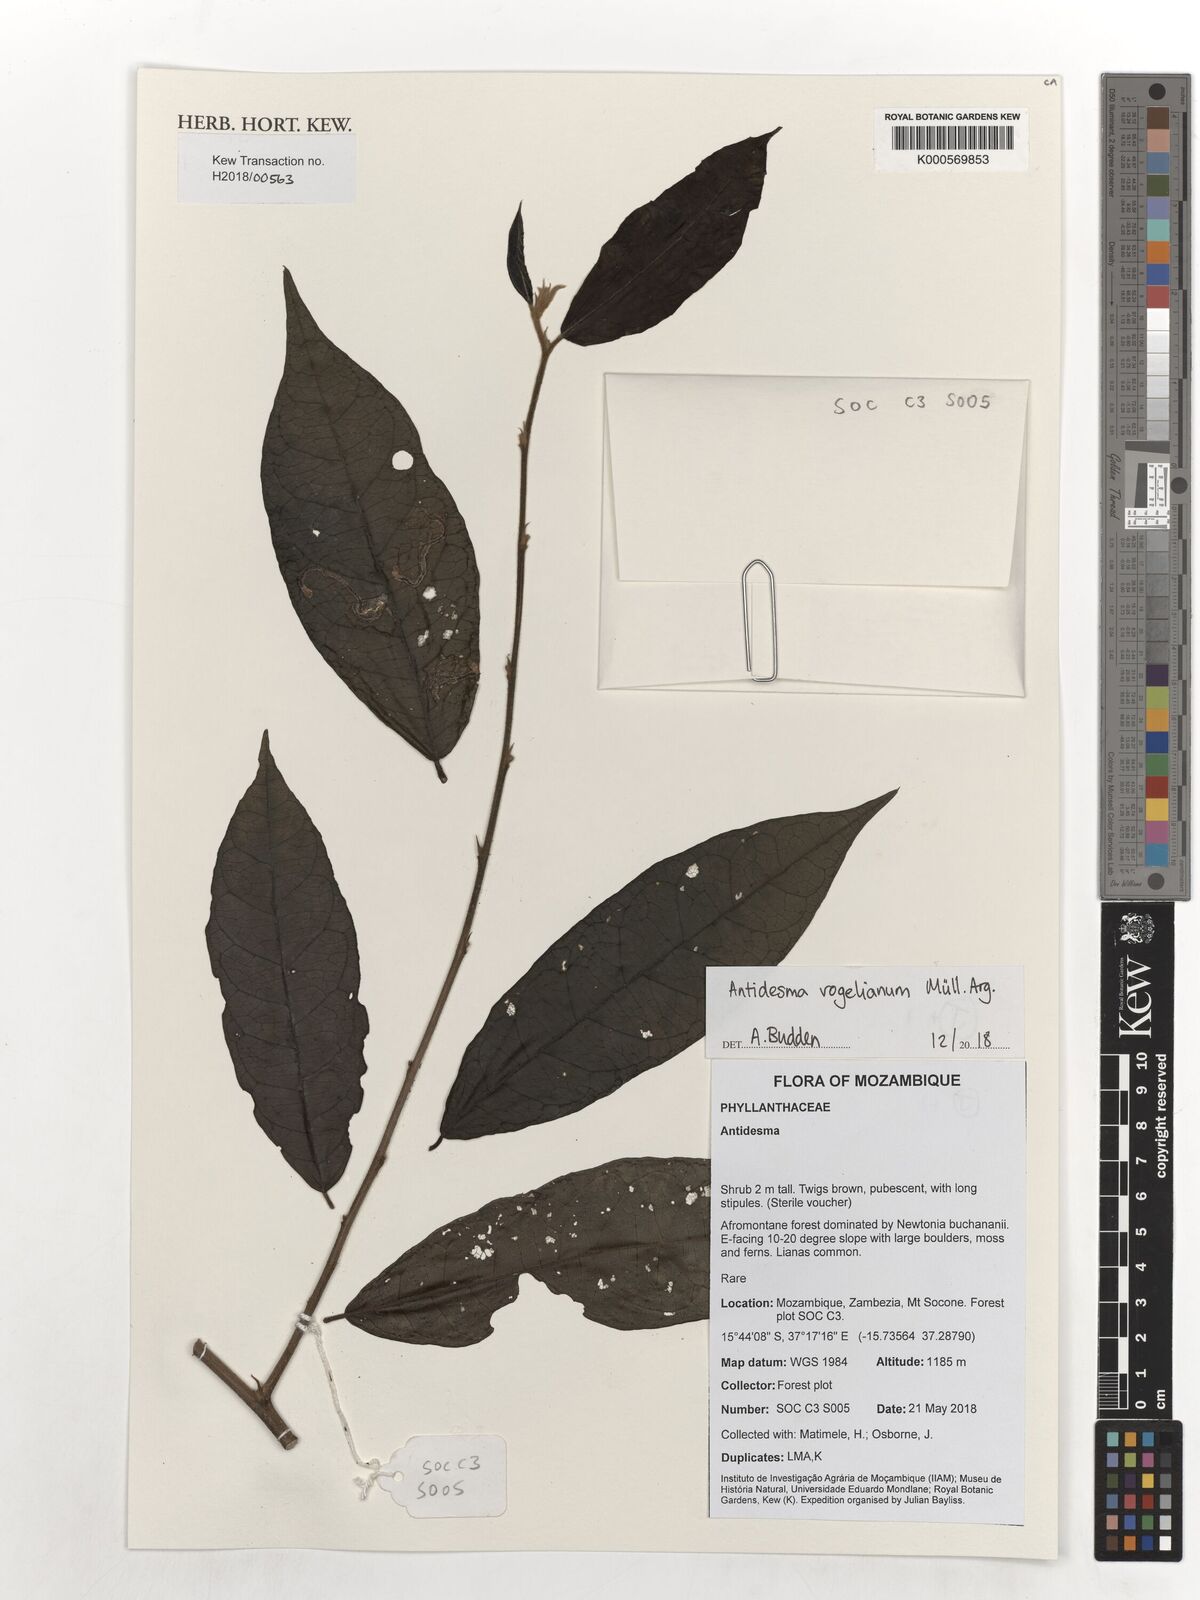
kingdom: Plantae
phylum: Tracheophyta
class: Magnoliopsida
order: Malpighiales
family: Phyllanthaceae
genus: Antidesma
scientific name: Antidesma vogelianum
